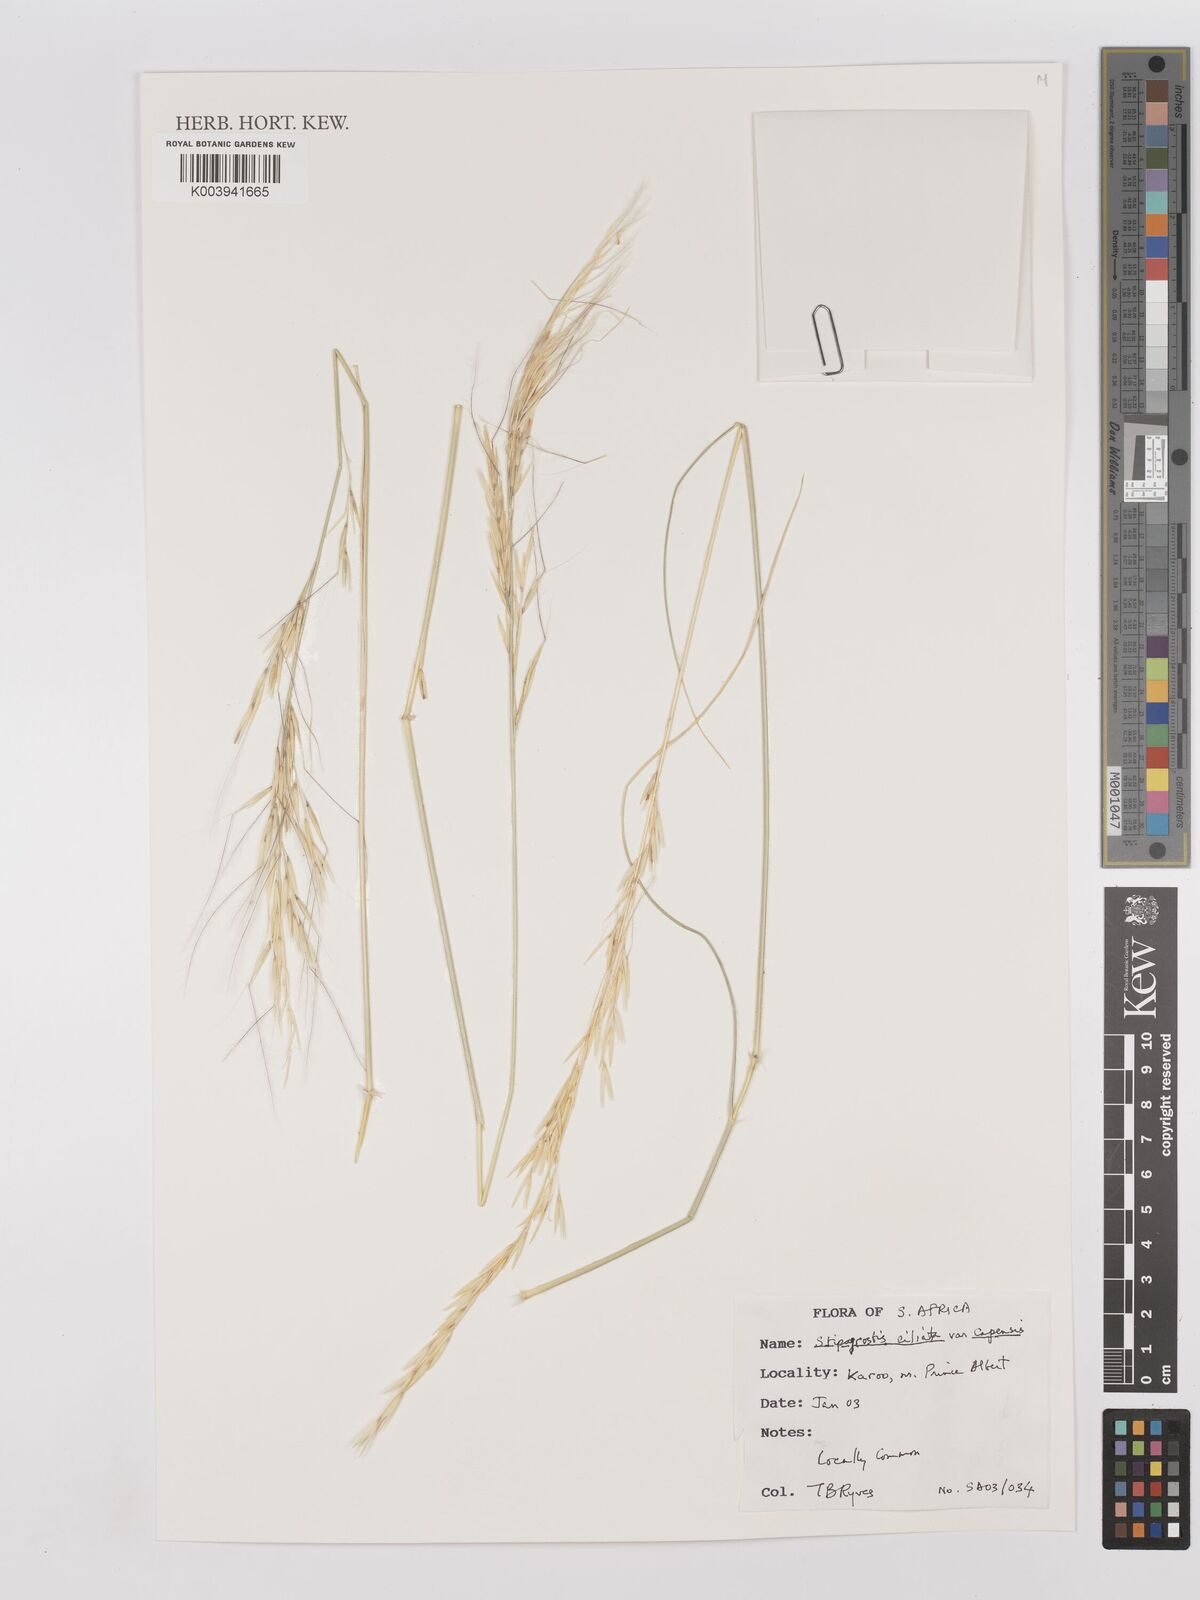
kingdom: Plantae
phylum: Tracheophyta
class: Liliopsida
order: Poales
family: Poaceae
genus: Stipagrostis
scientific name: Stipagrostis ciliata
